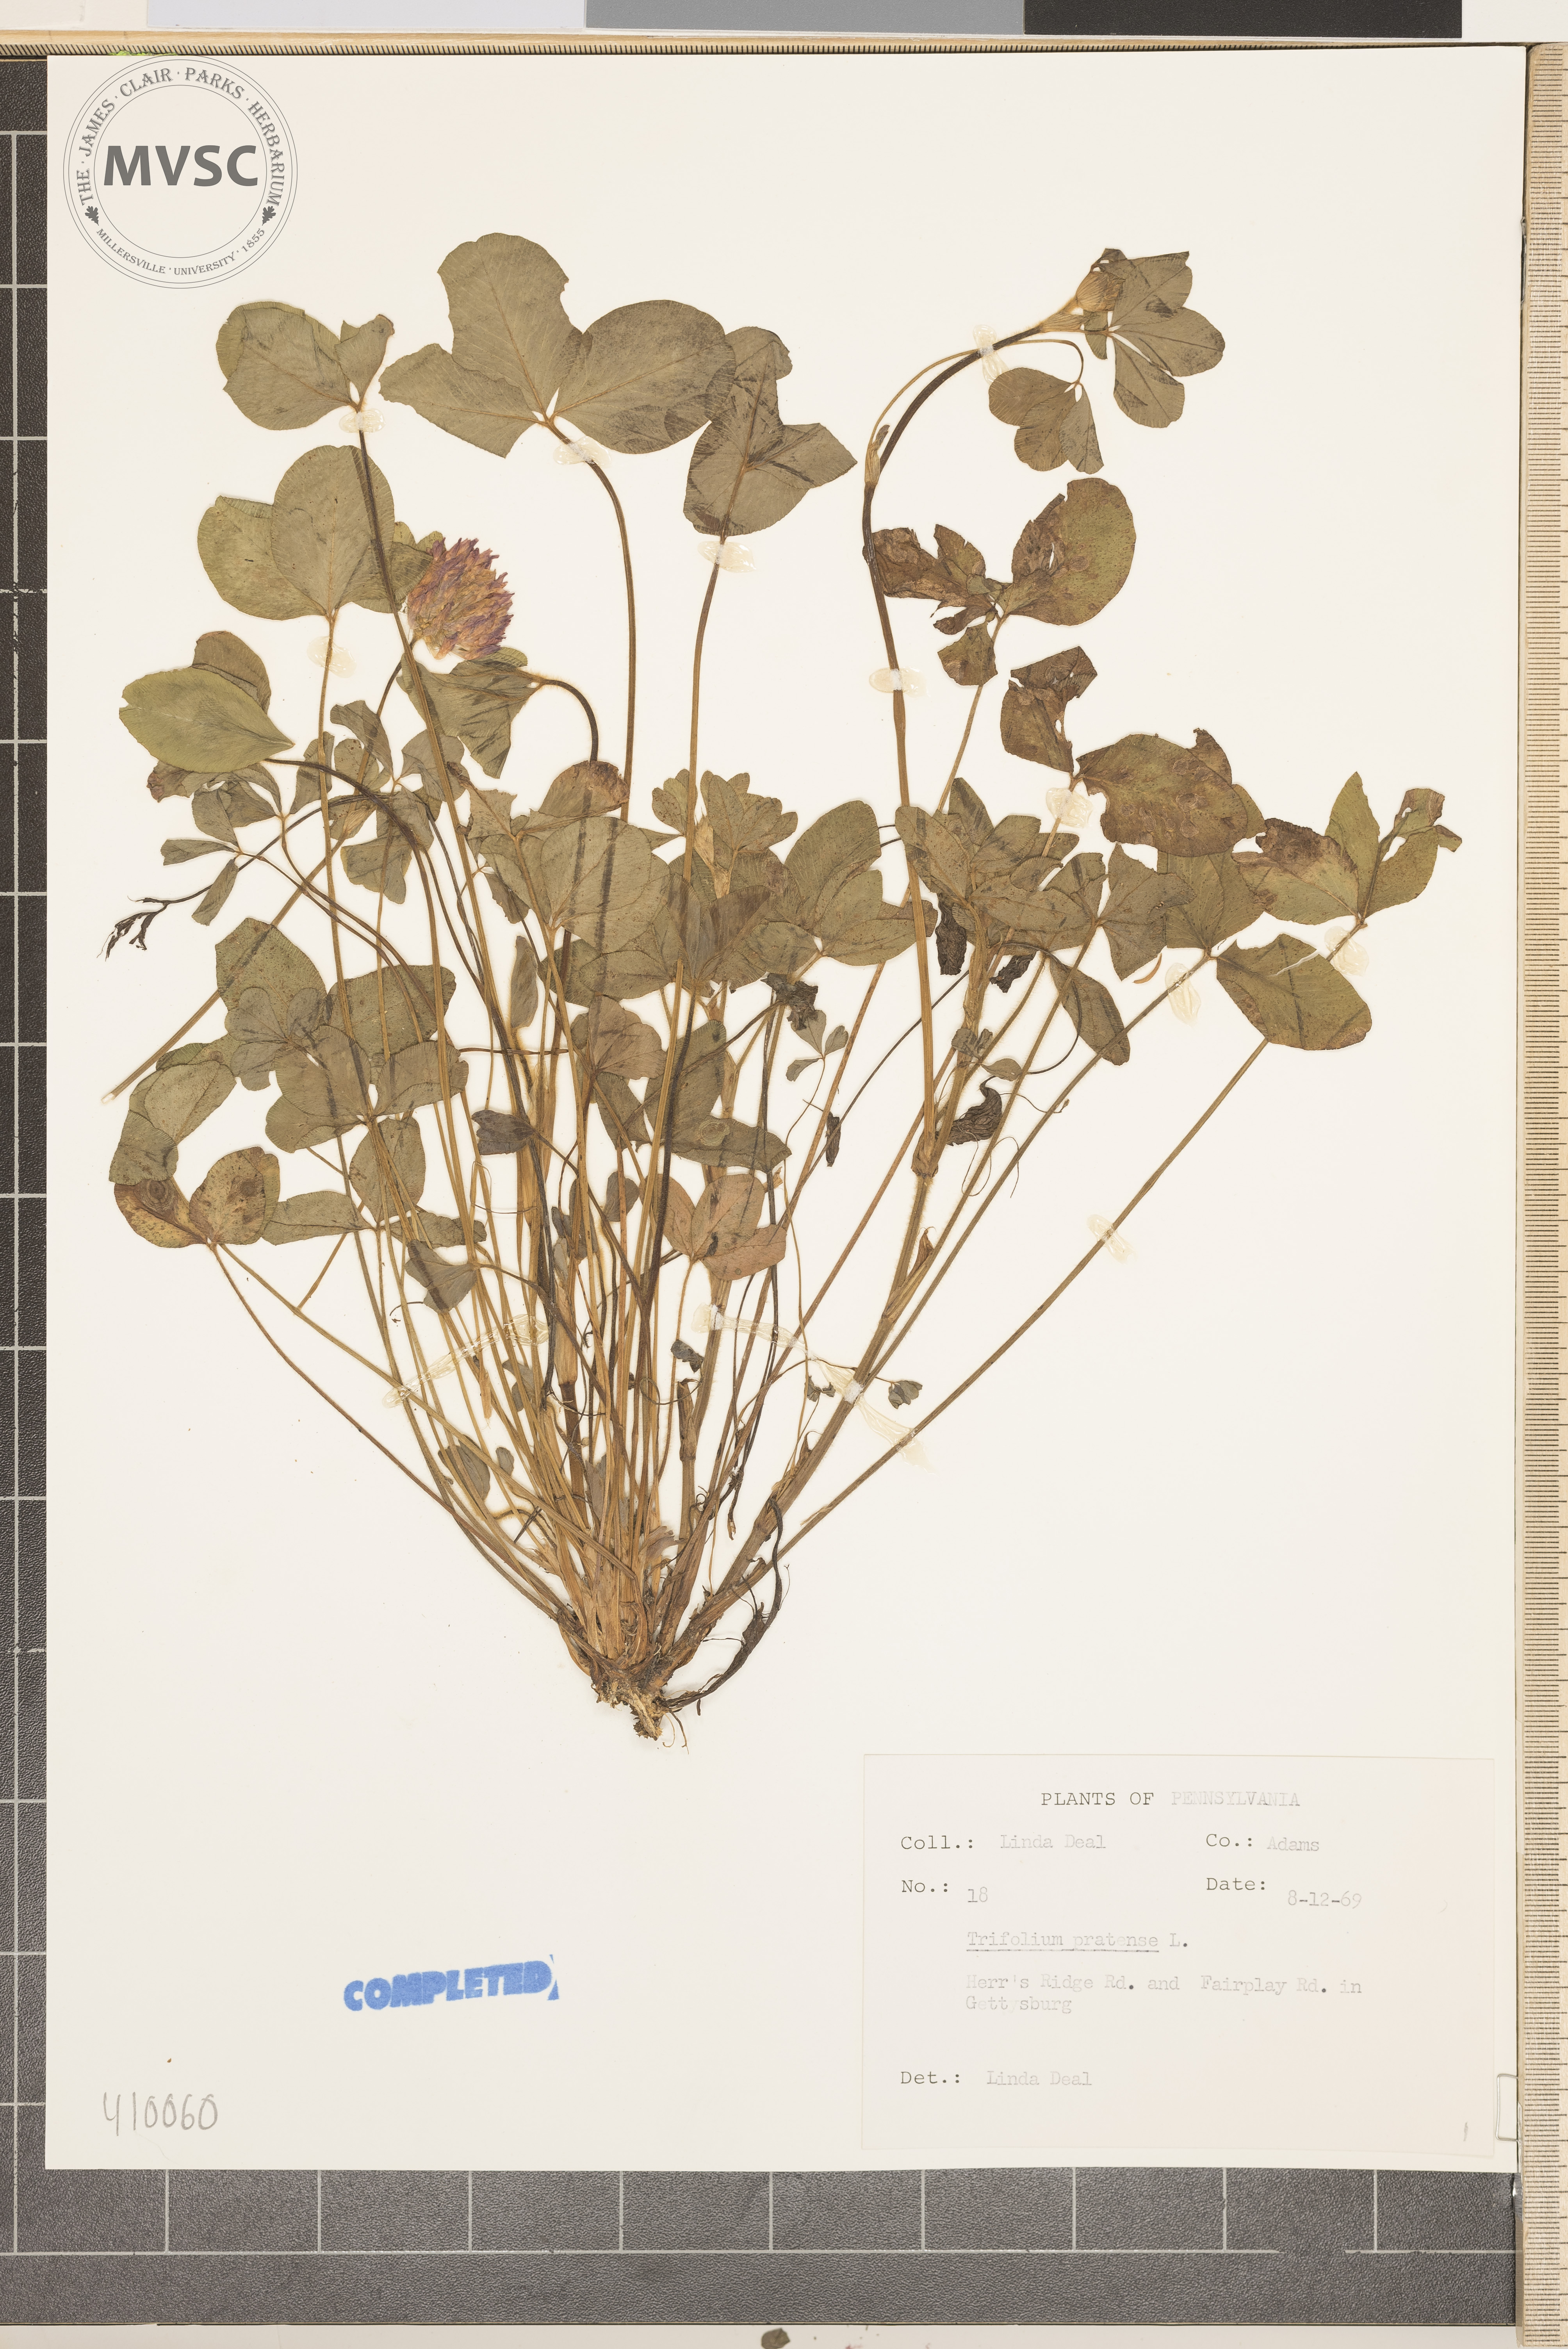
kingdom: Plantae
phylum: Tracheophyta
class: Magnoliopsida
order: Fabales
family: Fabaceae
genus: Trifolium
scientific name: Trifolium pratense
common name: Red clover
